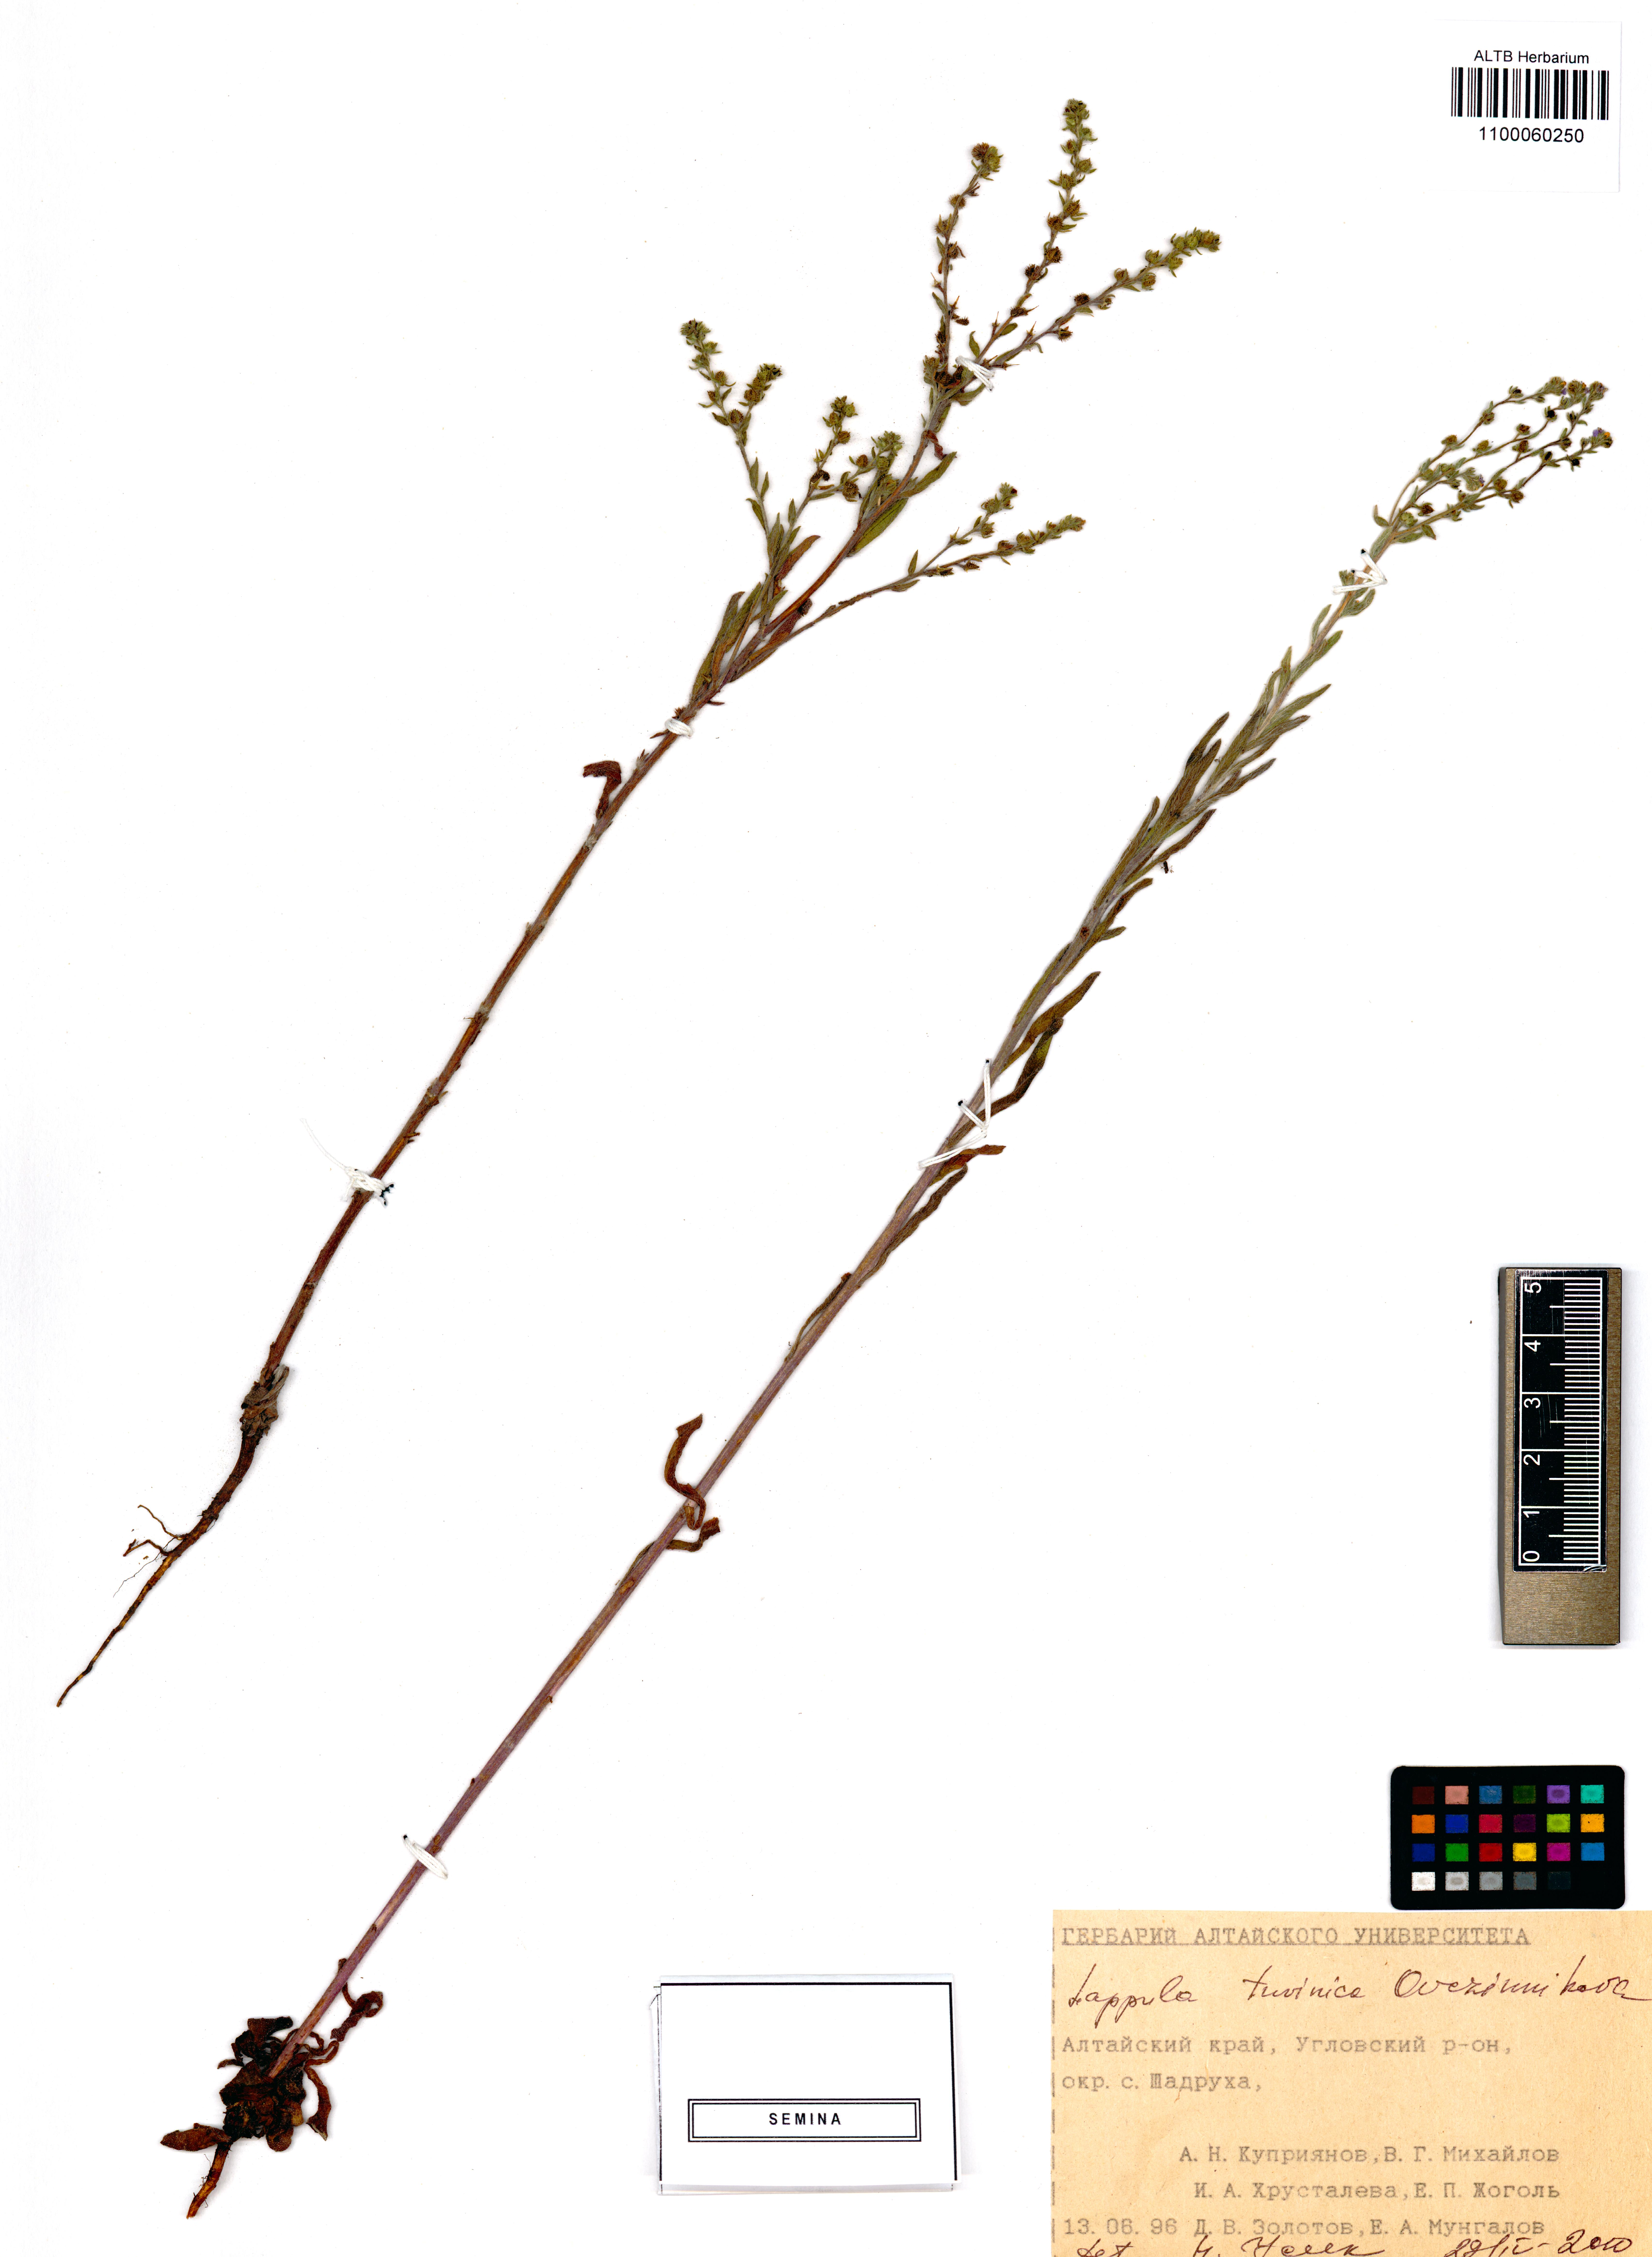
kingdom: Plantae
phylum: Tracheophyta
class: Magnoliopsida
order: Boraginales
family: Boraginaceae
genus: Lappula
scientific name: Lappula tuvinica
